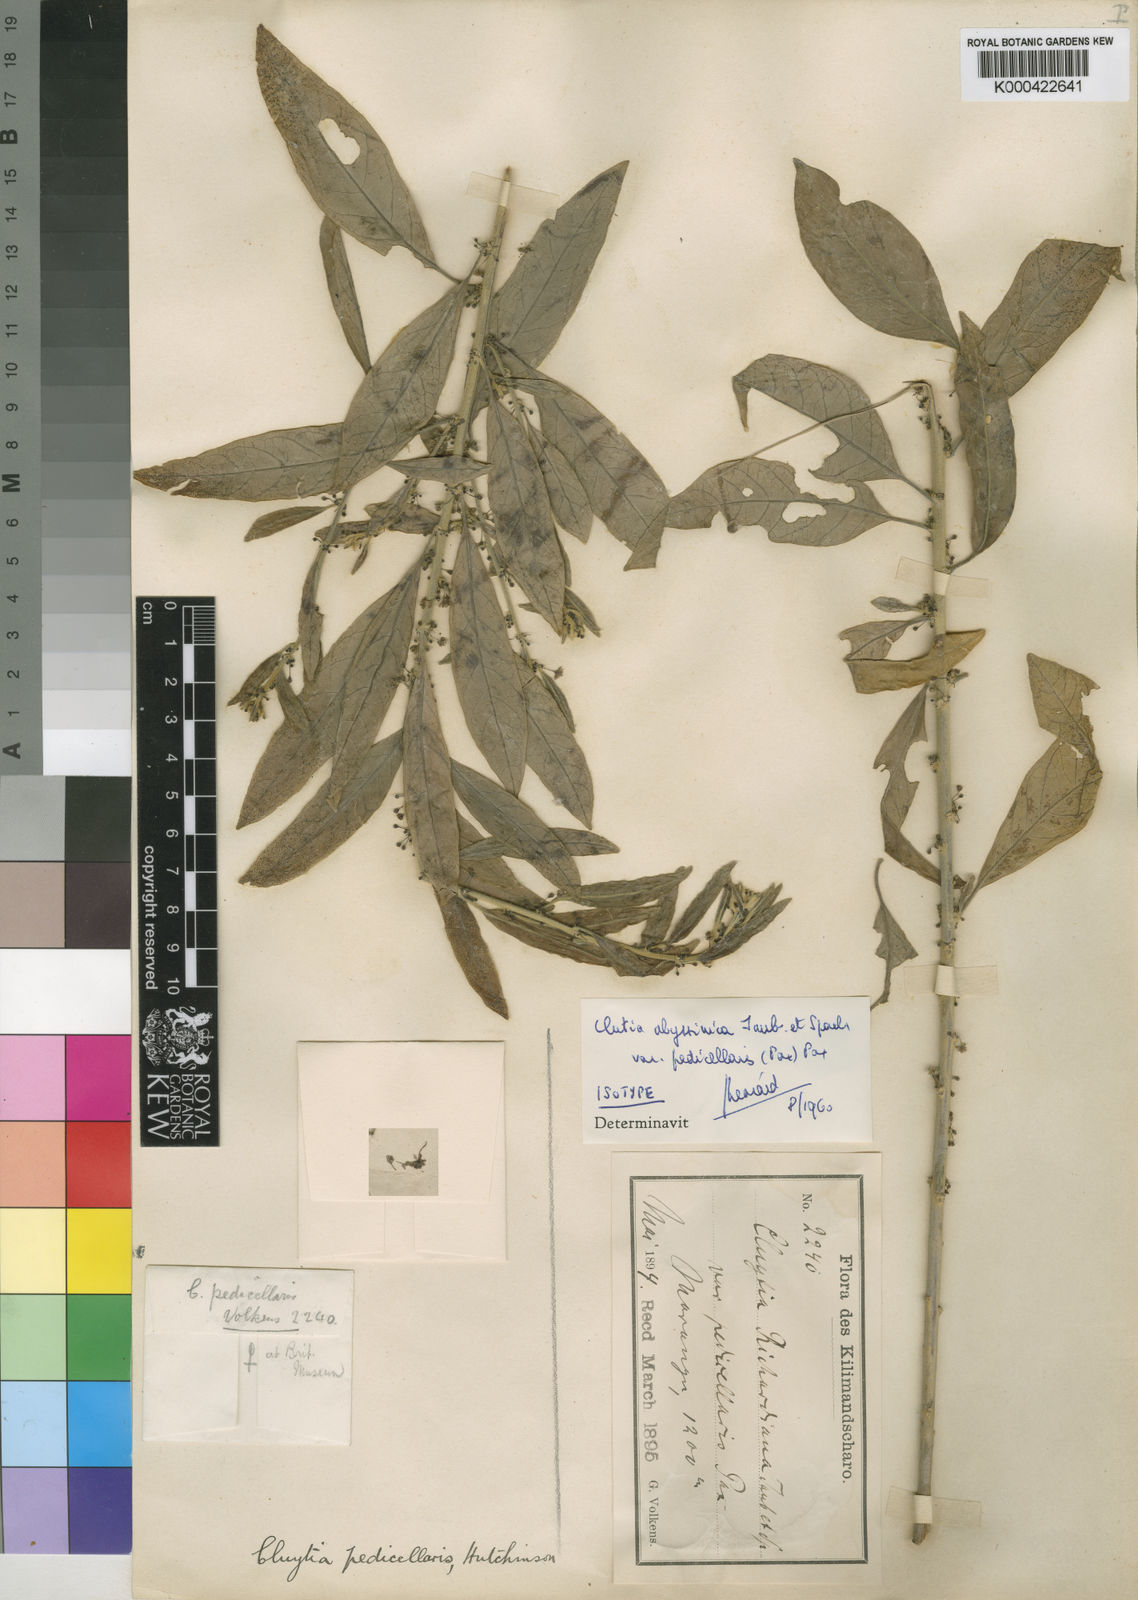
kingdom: Plantae
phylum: Tracheophyta
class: Magnoliopsida
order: Malpighiales
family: Peraceae
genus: Clutia
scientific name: Clutia abyssinica
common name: Large lightning bush
